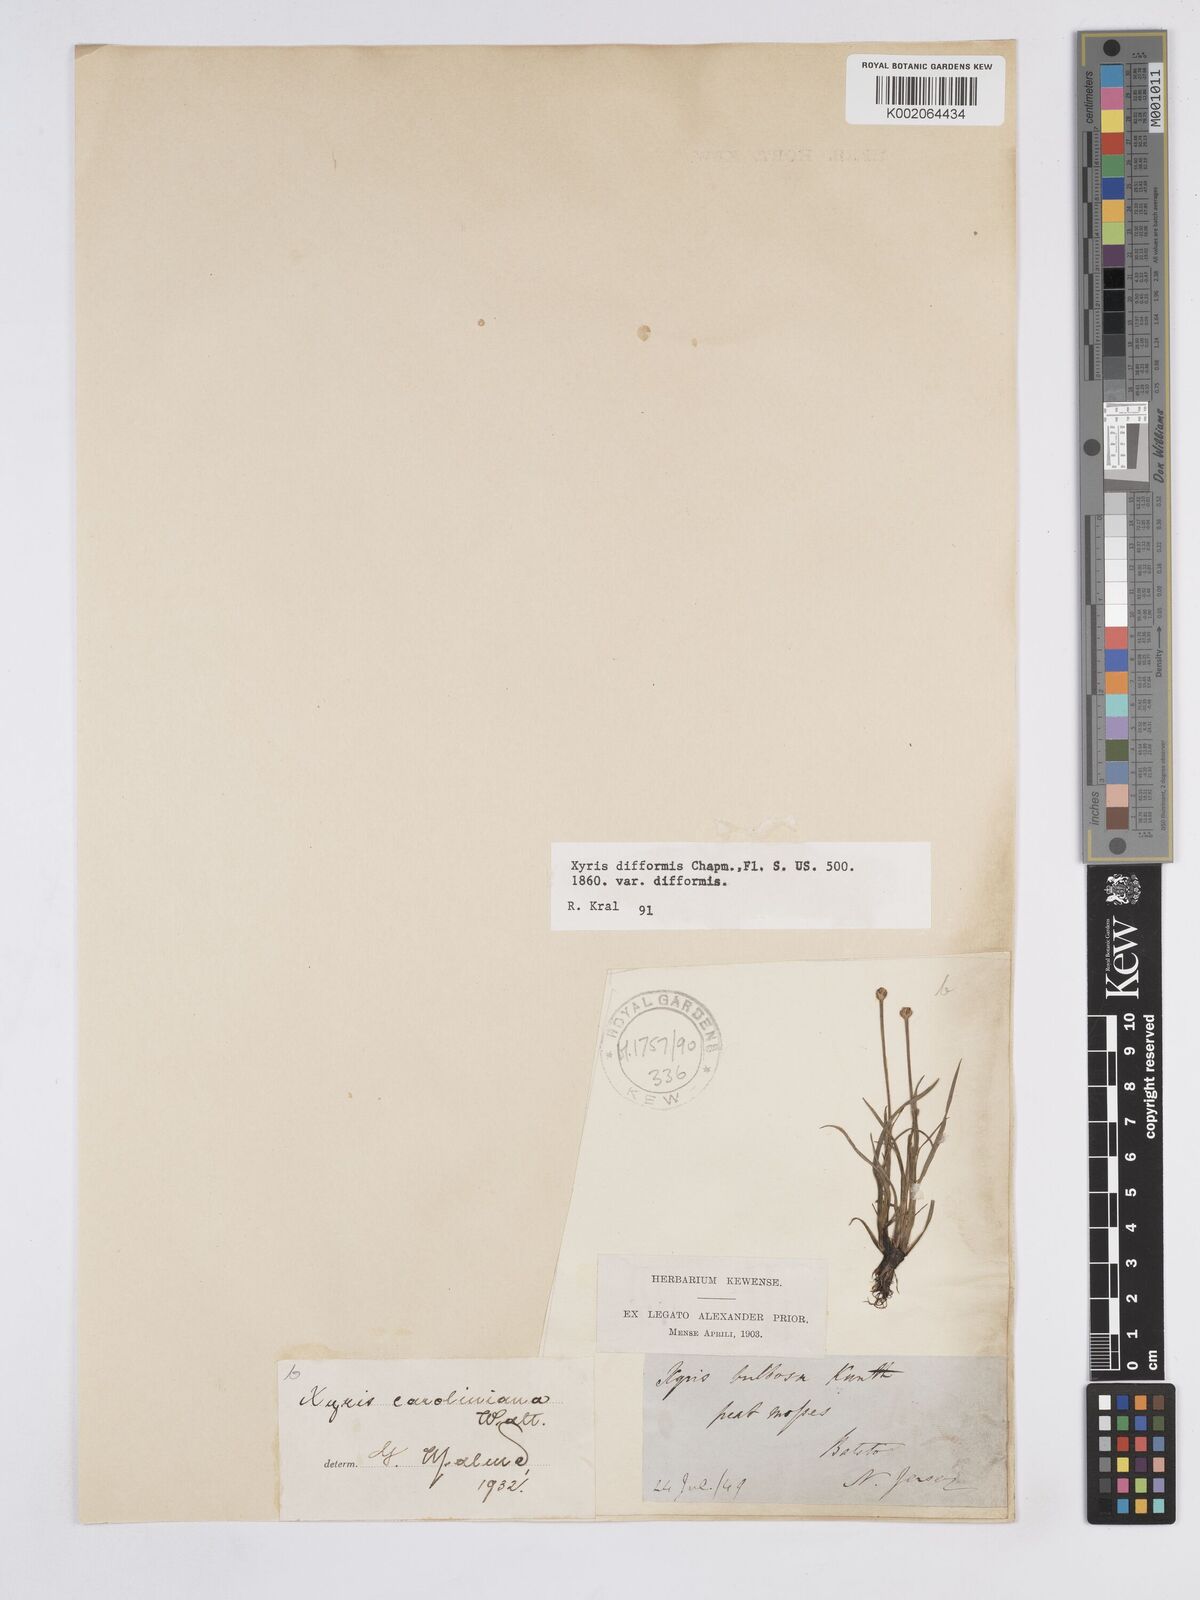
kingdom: Plantae
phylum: Tracheophyta
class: Liliopsida
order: Poales
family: Xyridaceae
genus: Xyris
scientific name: Xyris difformis
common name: Bog yellow-eyed-grass
